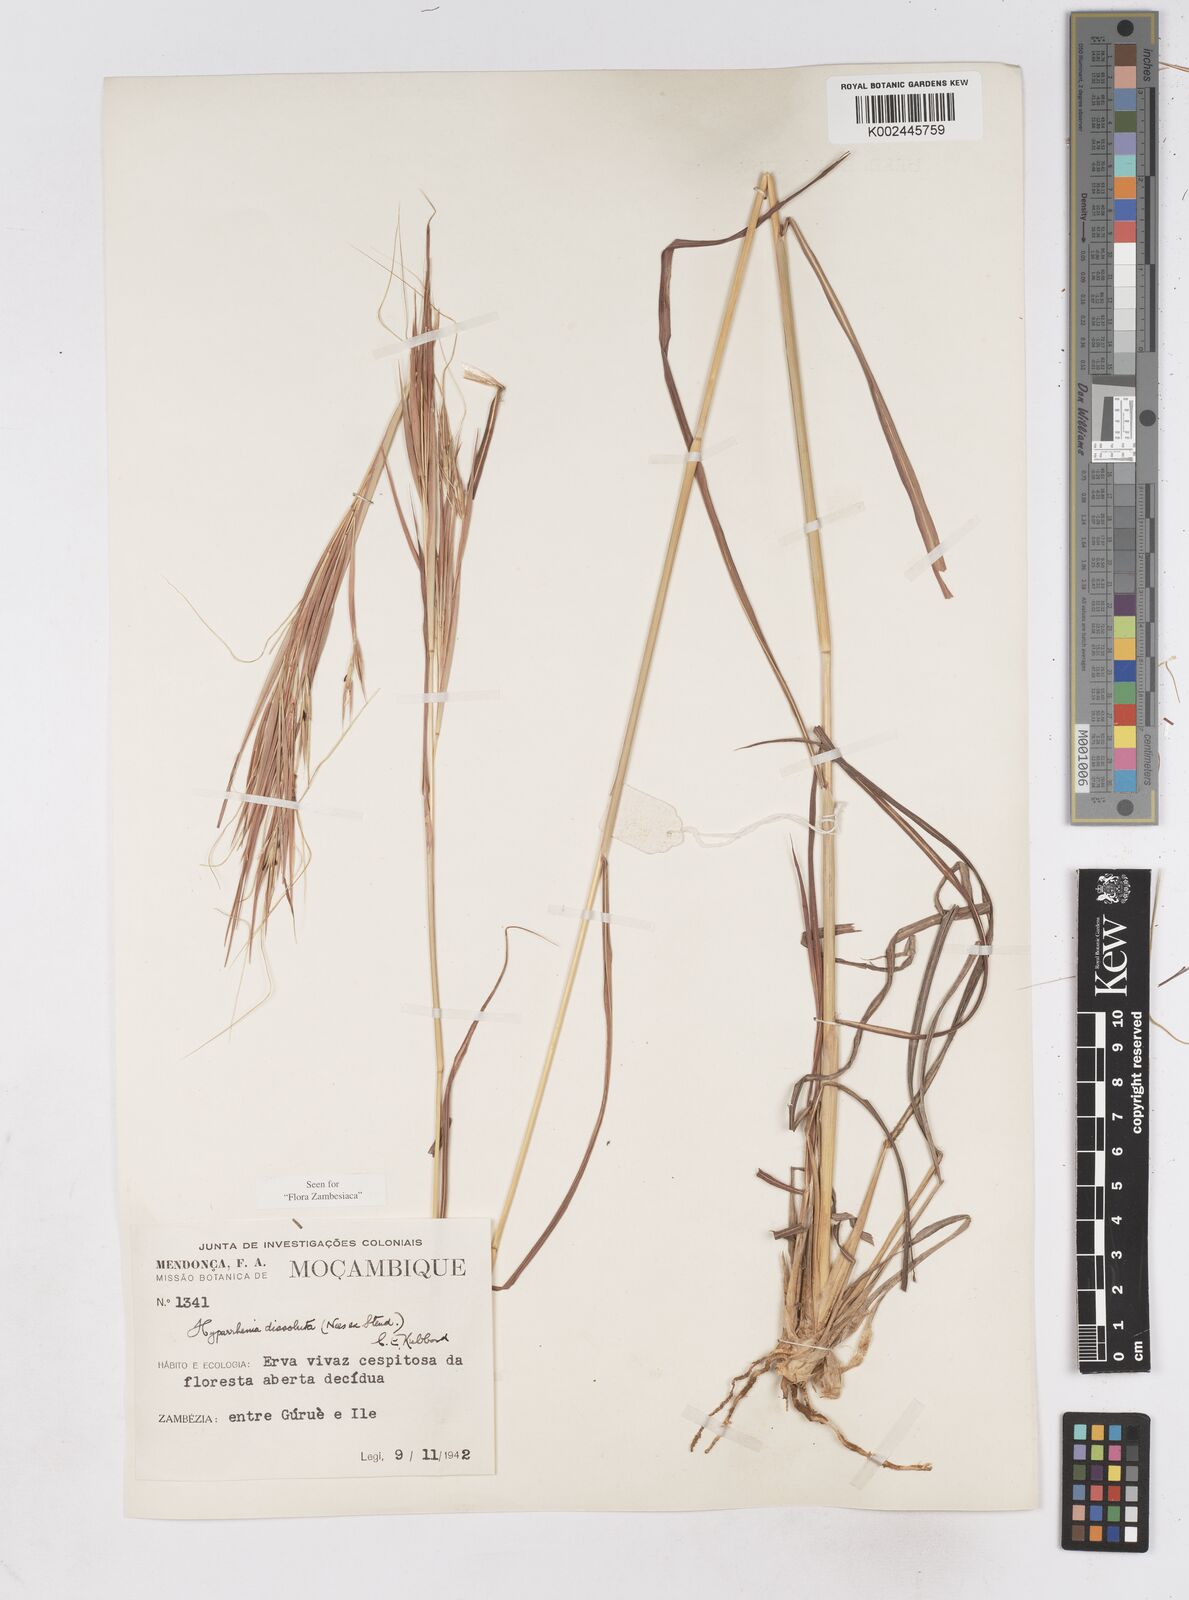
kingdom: Plantae
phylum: Tracheophyta
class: Liliopsida
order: Poales
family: Poaceae
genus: Hyperthelia
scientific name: Hyperthelia dissoluta
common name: Yellow thatching grass
